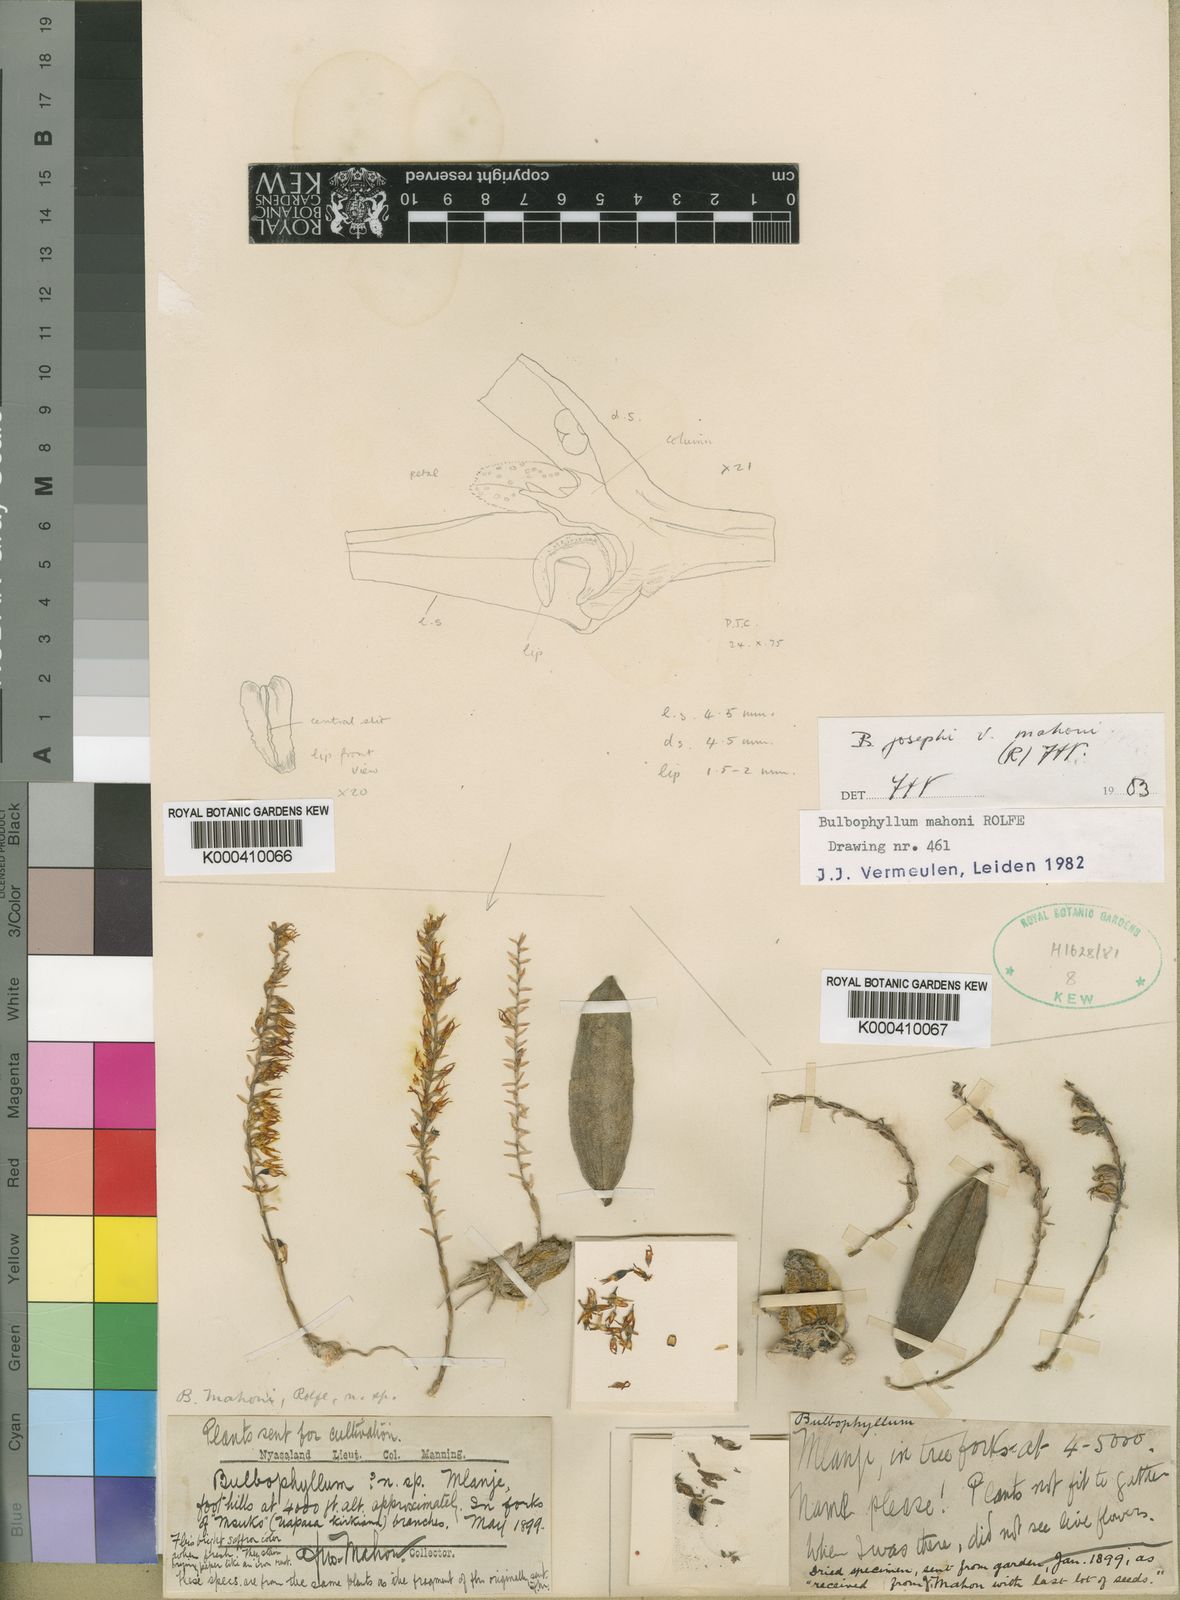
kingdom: Plantae
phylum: Tracheophyta
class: Liliopsida
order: Asparagales
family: Orchidaceae
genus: Bulbophyllum
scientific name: Bulbophyllum josephi
